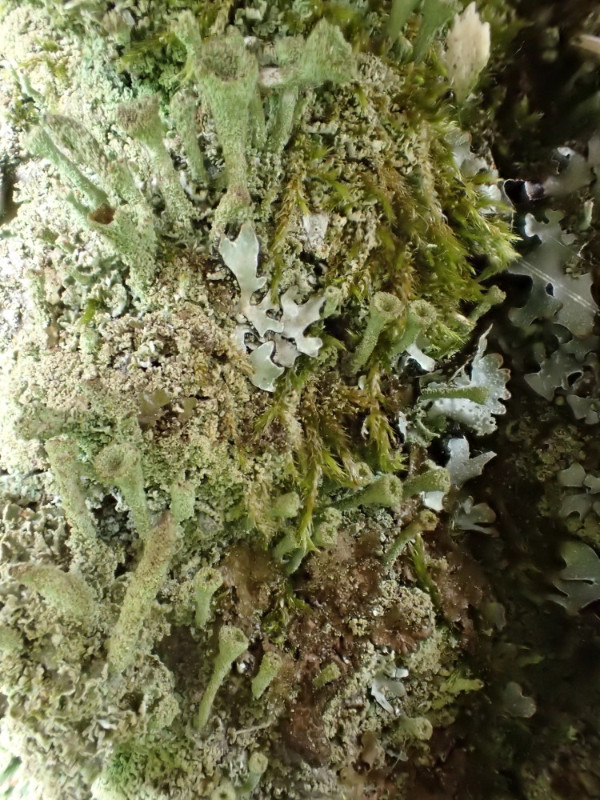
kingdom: Fungi
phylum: Ascomycota
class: Lecanoromycetes
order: Lecanorales
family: Cladoniaceae
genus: Cladonia
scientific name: Cladonia
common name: brungrøn bægerlav
